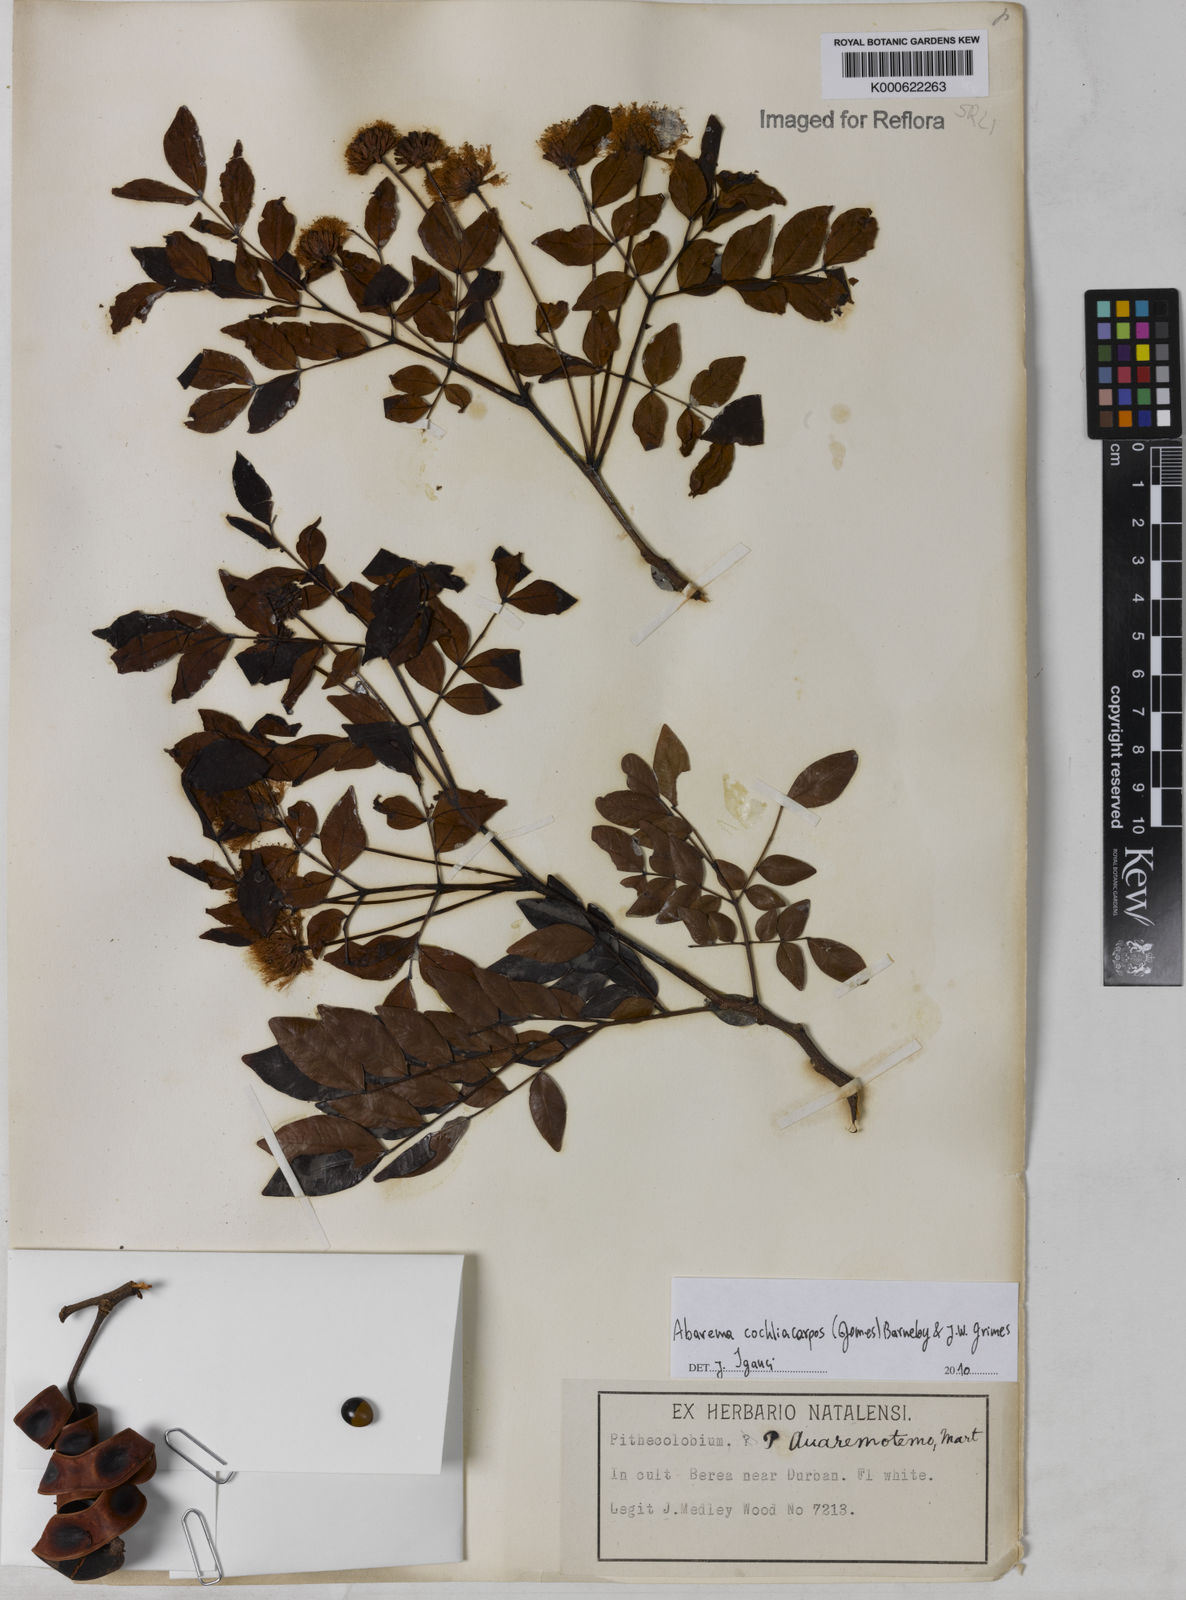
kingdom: Plantae
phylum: Tracheophyta
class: Magnoliopsida
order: Fabales
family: Fabaceae
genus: Abarema
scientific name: Abarema
